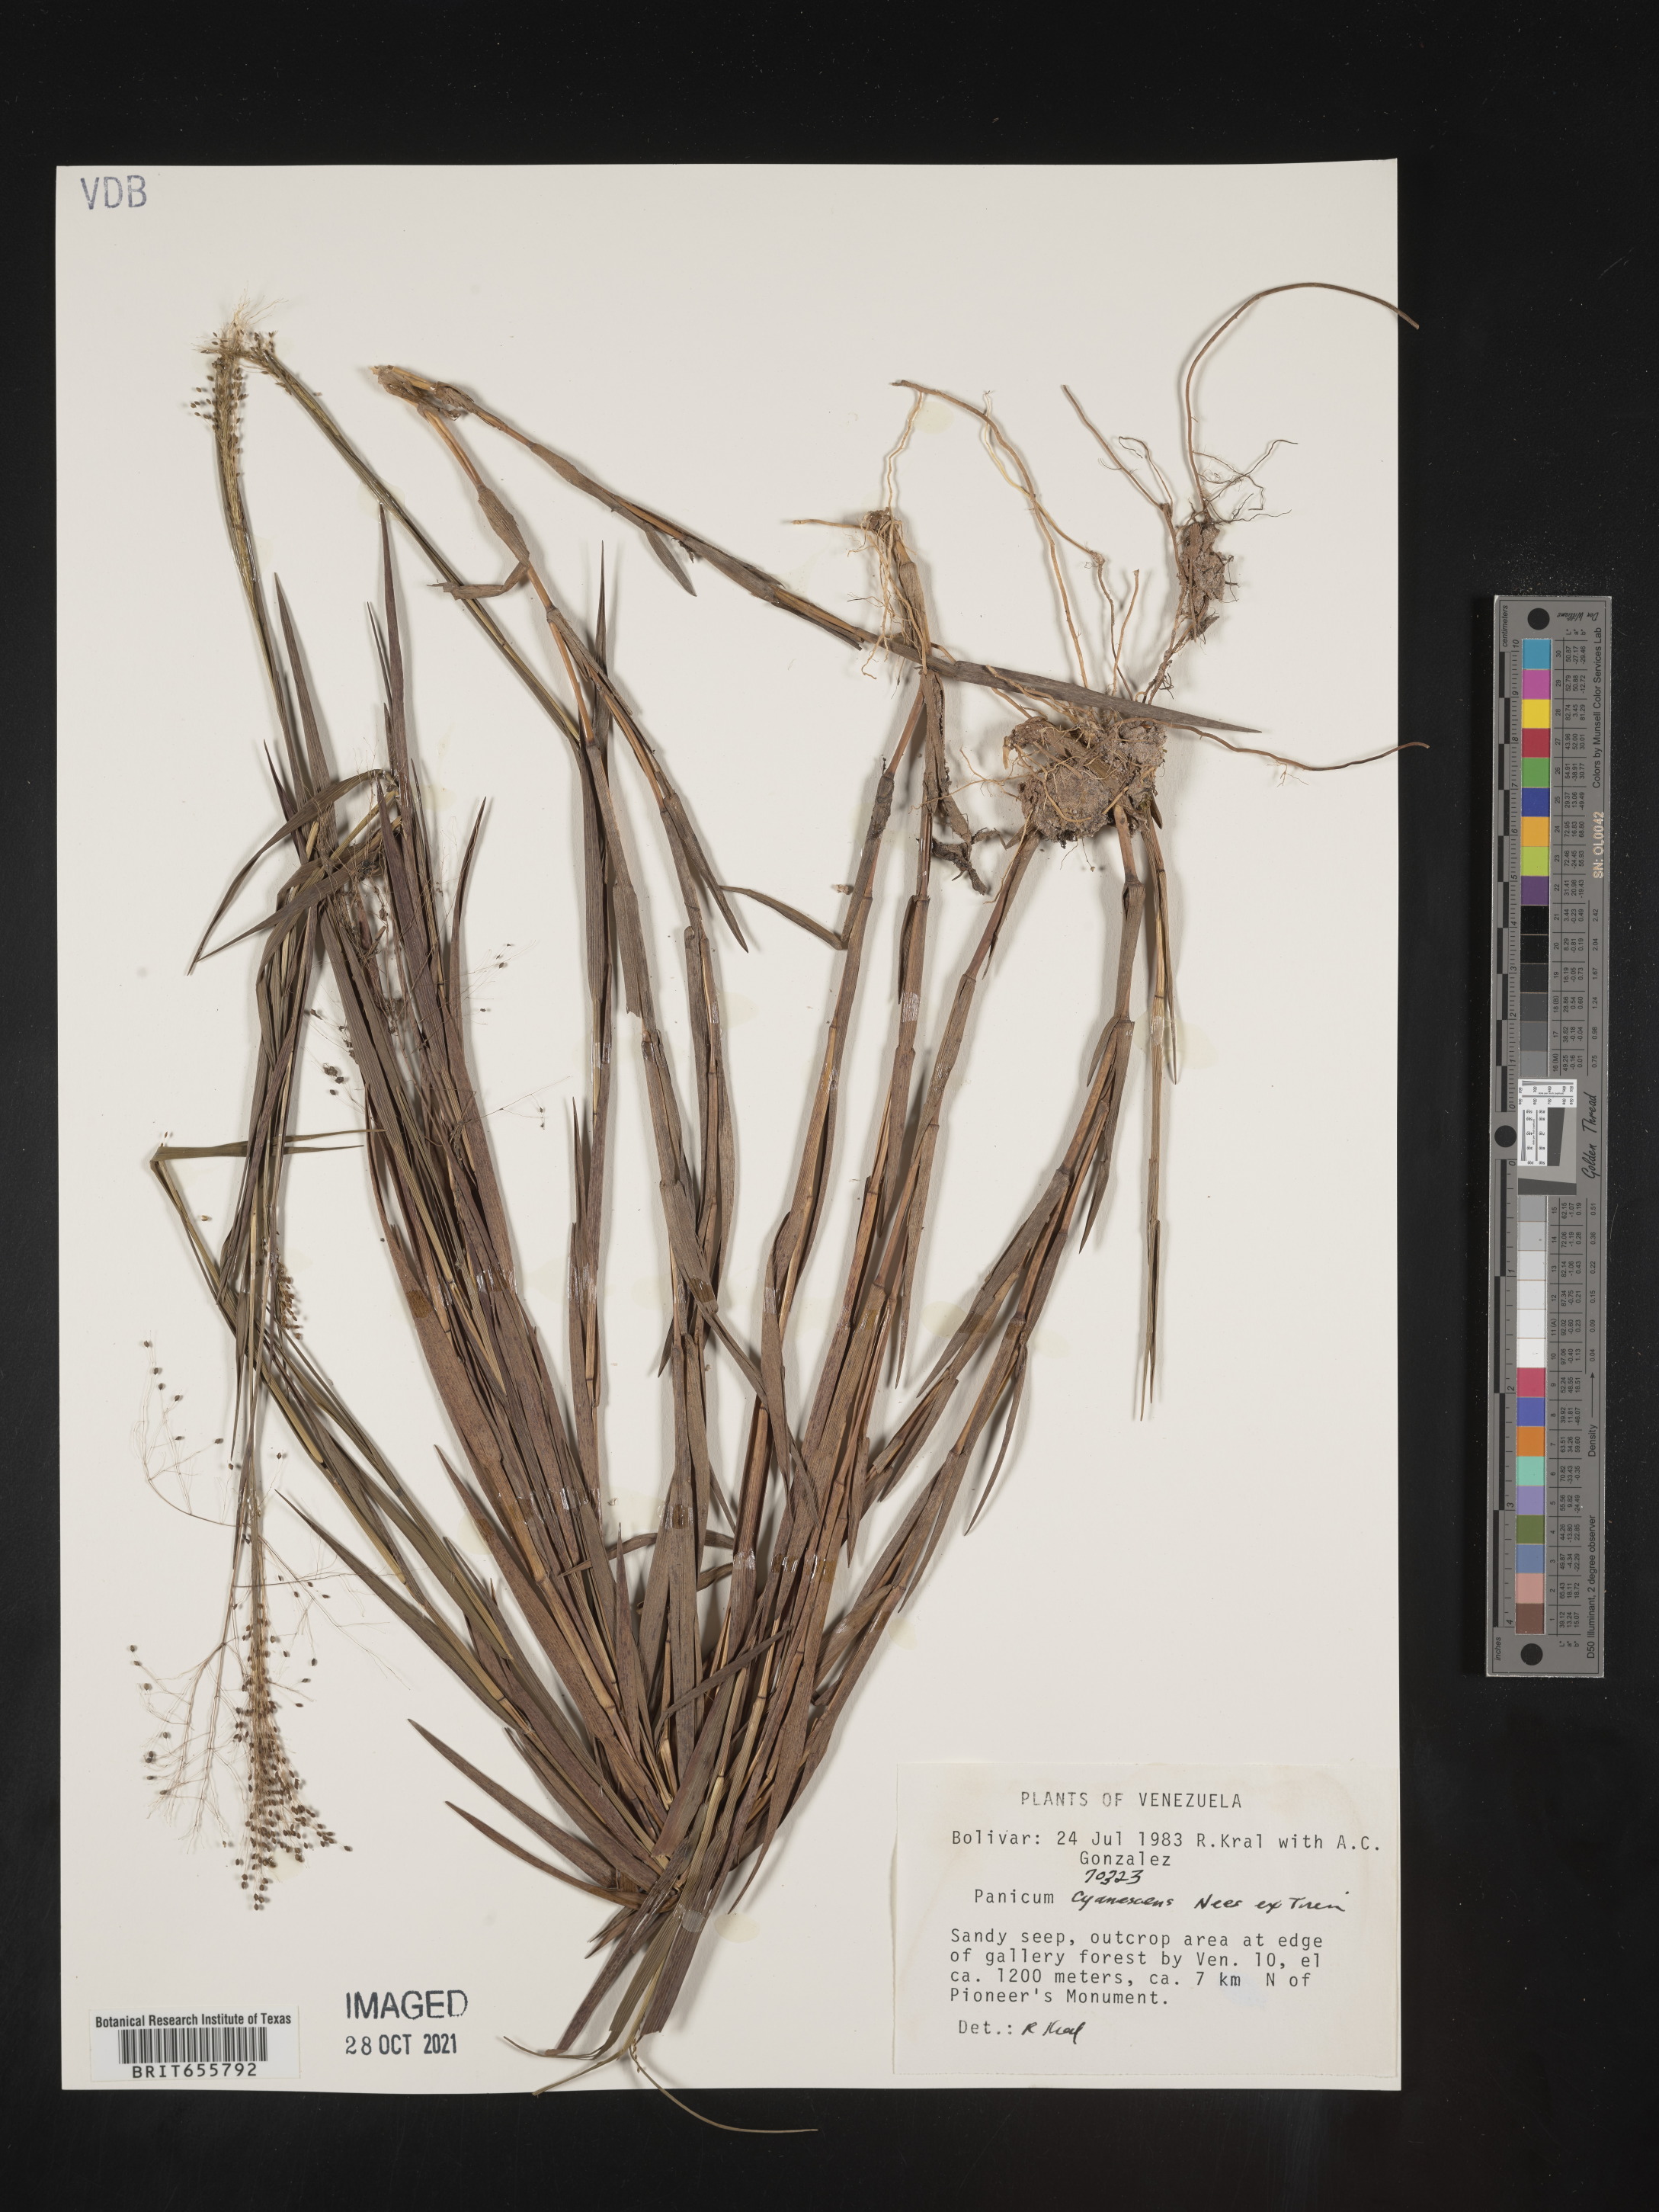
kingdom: Plantae
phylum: Tracheophyta
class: Liliopsida
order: Poales
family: Poaceae
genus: Panicum
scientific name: Panicum
